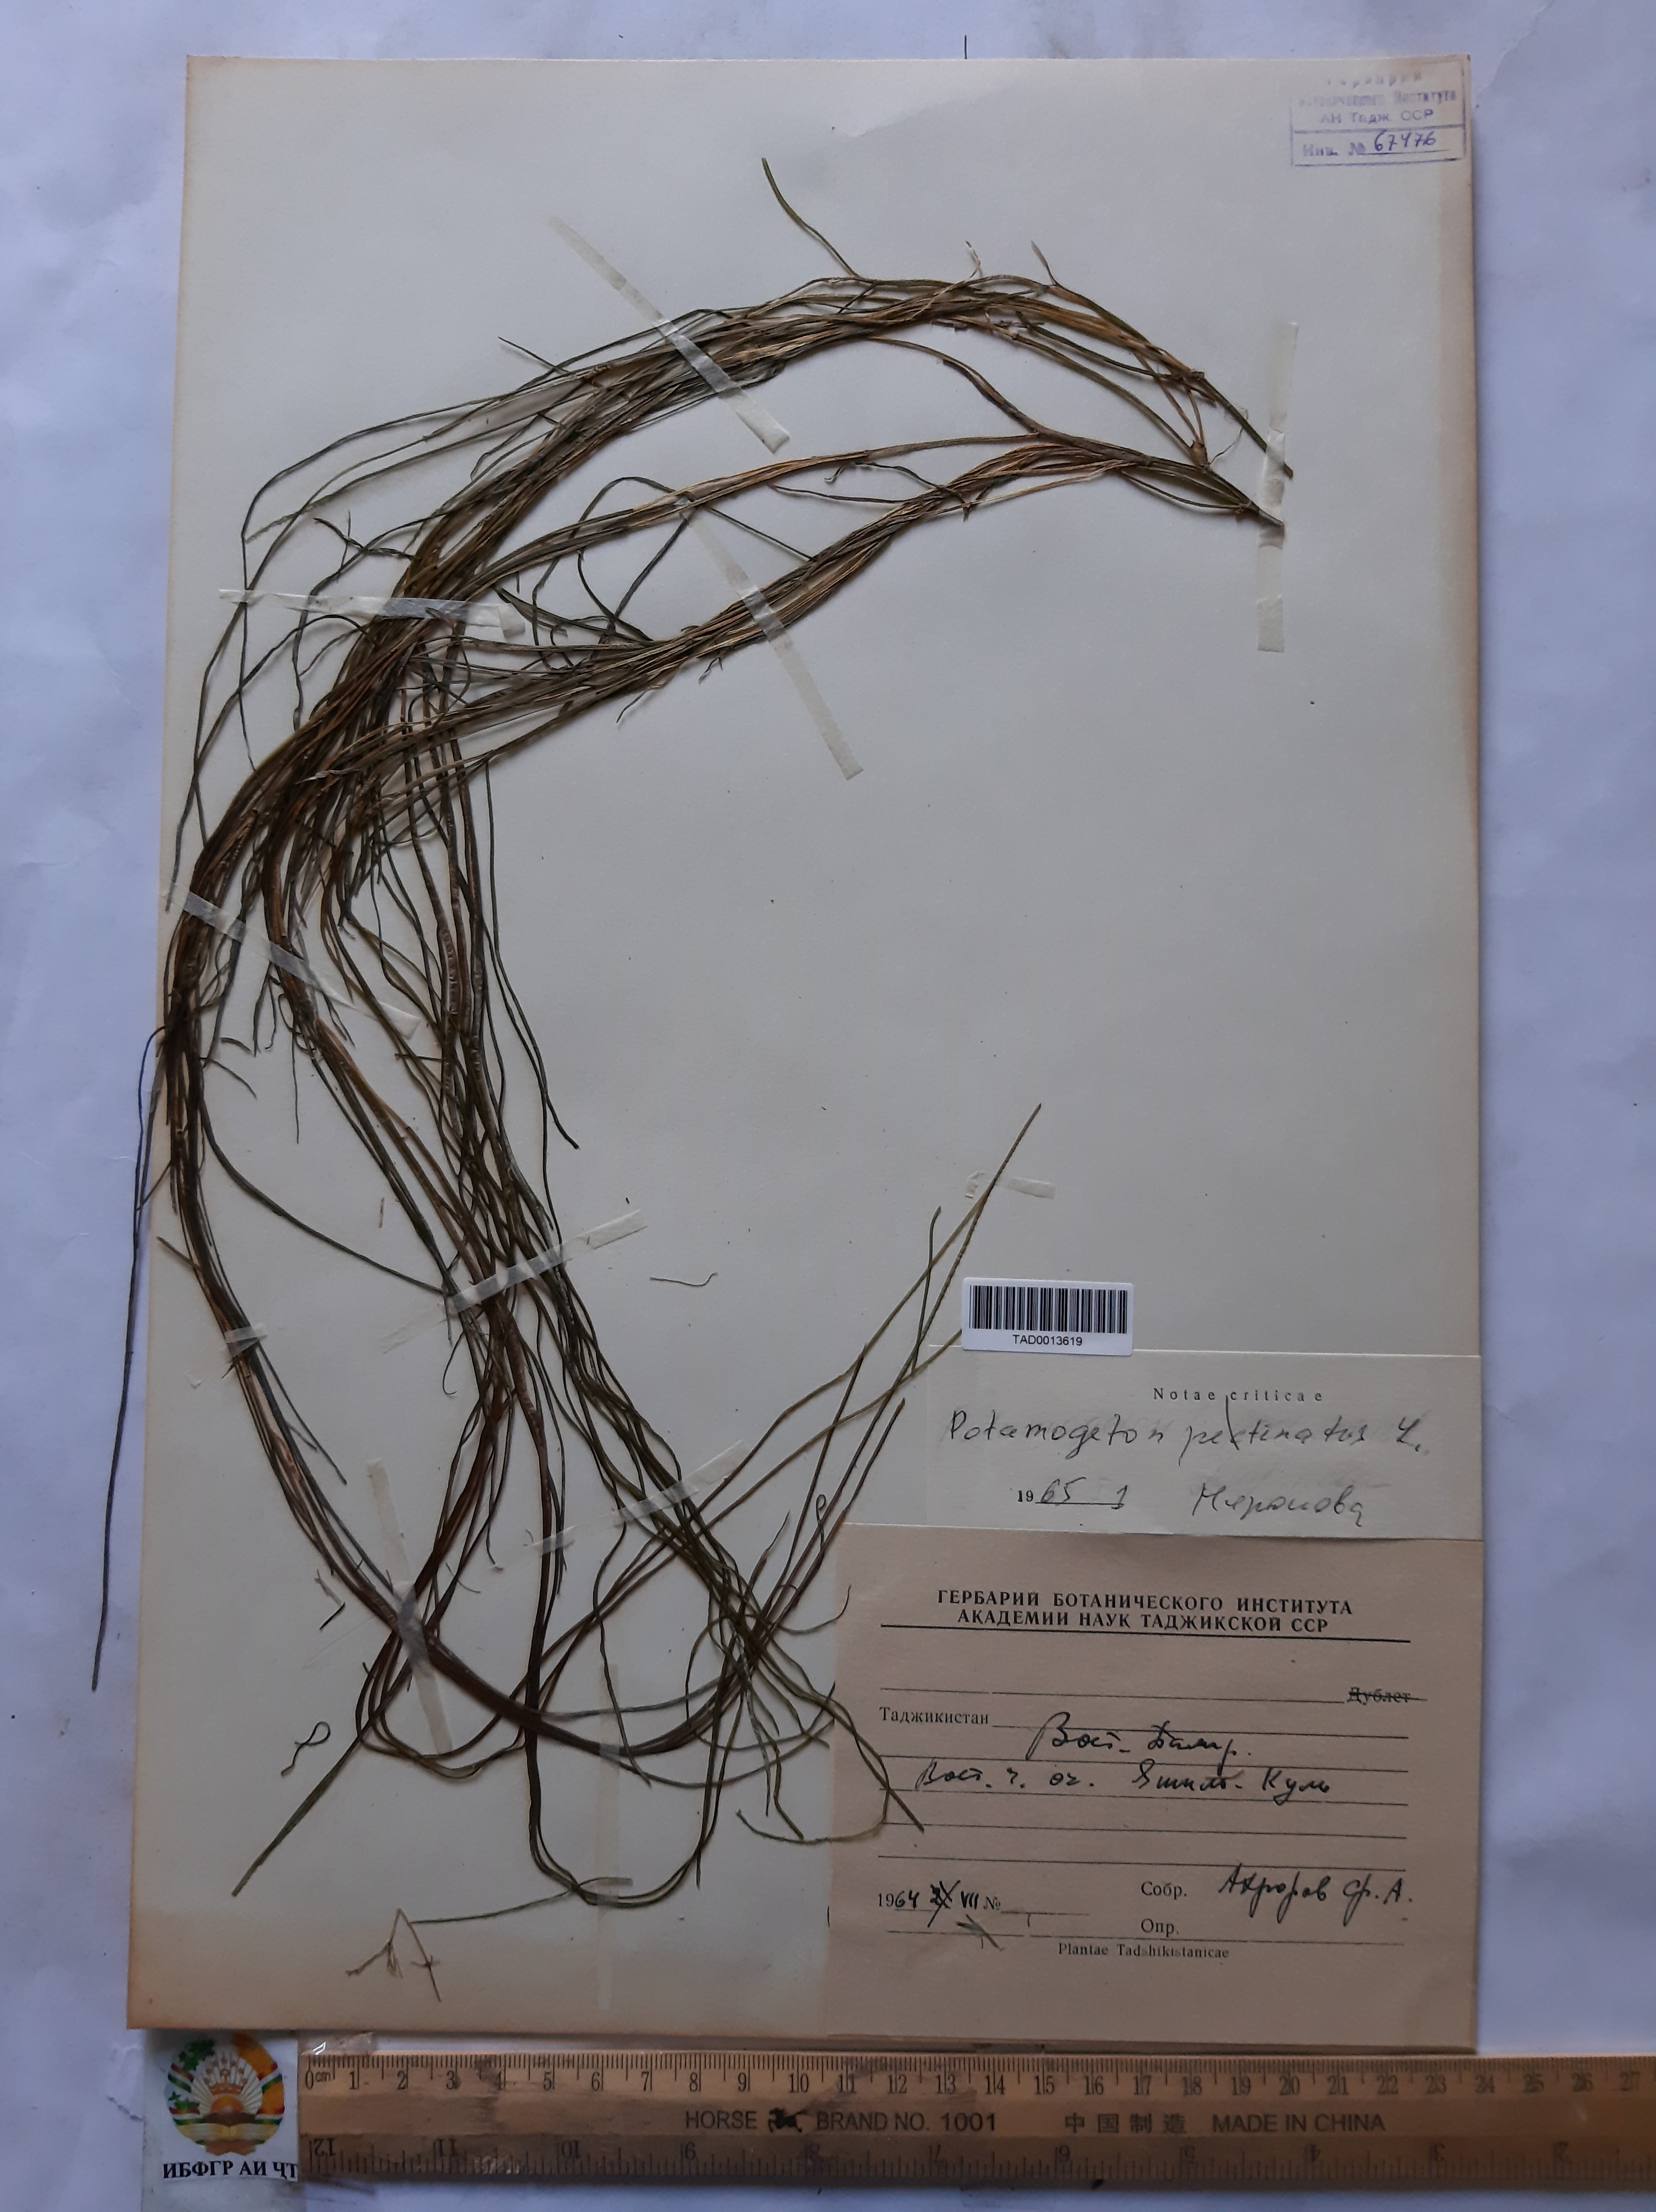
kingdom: Plantae
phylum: Tracheophyta
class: Liliopsida
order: Alismatales
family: Potamogetonaceae
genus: Stuckenia
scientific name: Stuckenia pectinata
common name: Sago pondweed
